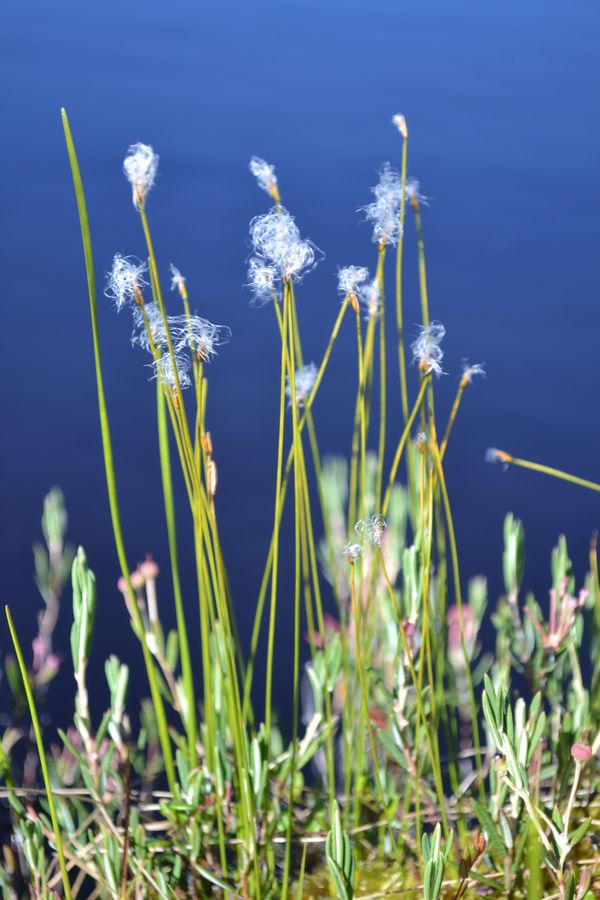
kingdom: Plantae
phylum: Tracheophyta
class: Liliopsida
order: Poales
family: Cyperaceae
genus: Trichophorum
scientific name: Trichophorum alpinum
